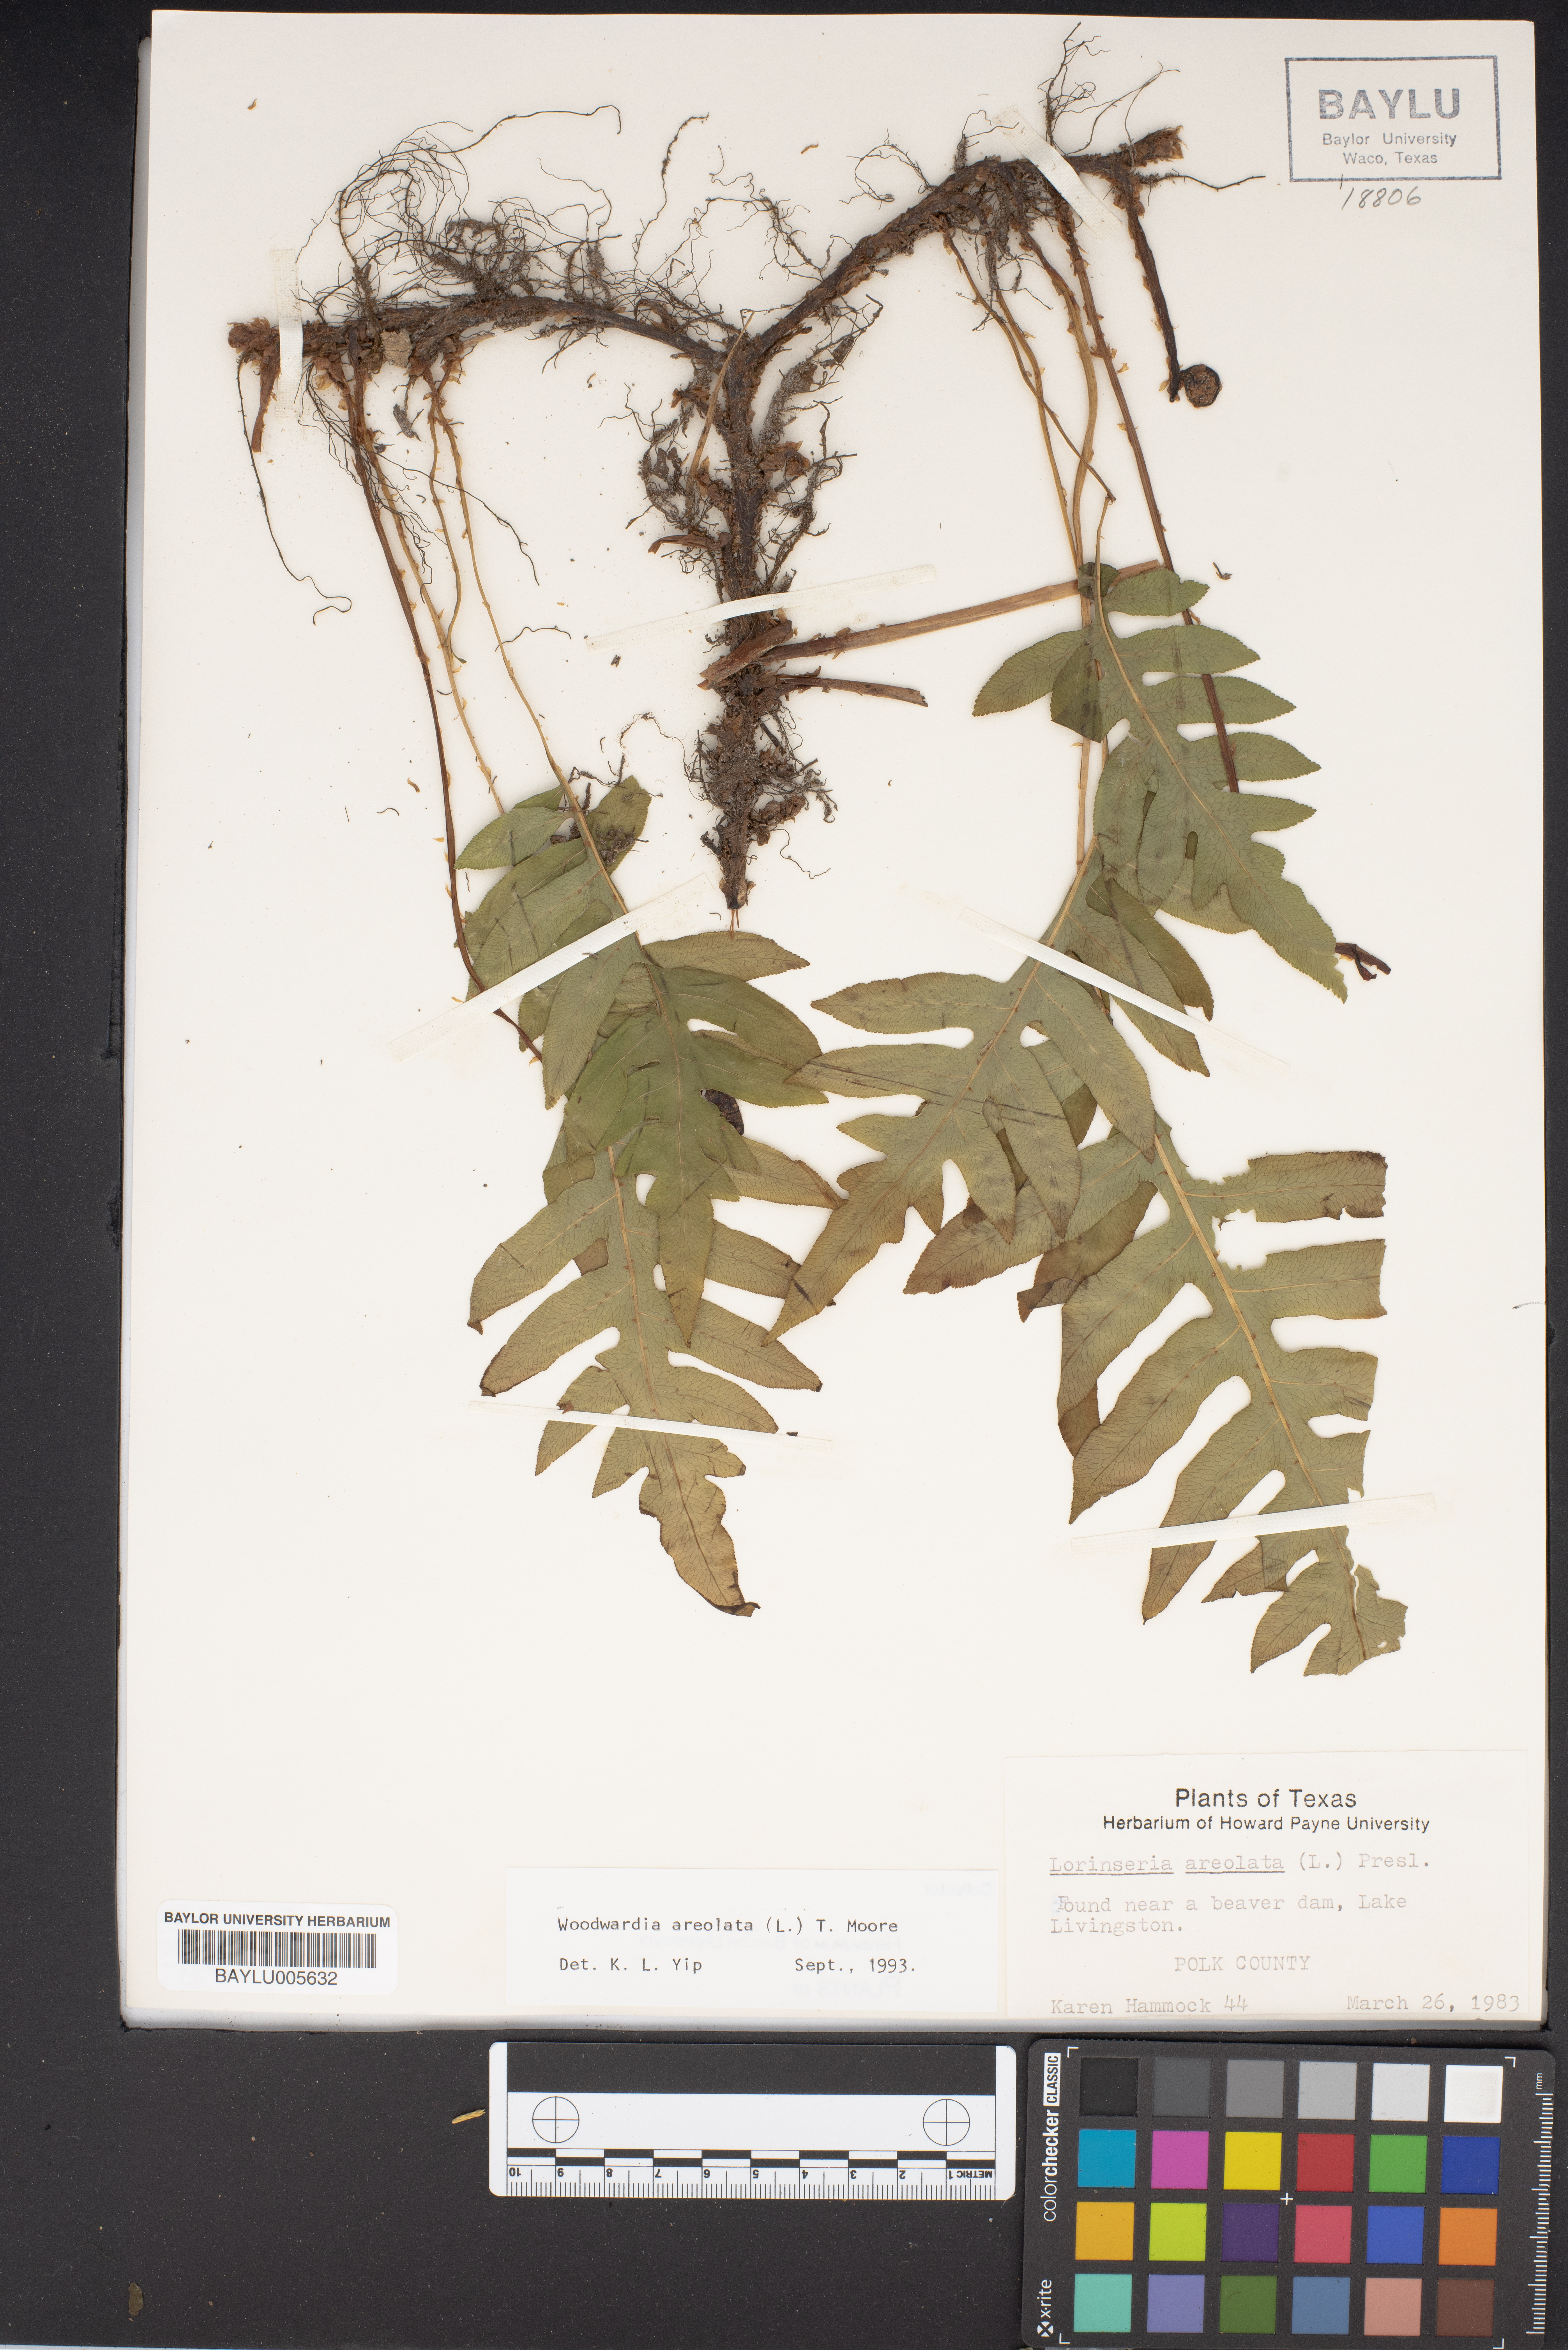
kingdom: Plantae
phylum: Tracheophyta
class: Polypodiopsida
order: Polypodiales
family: Blechnaceae
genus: Lorinseria
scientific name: Lorinseria areolata
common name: Dwarf chain fern
